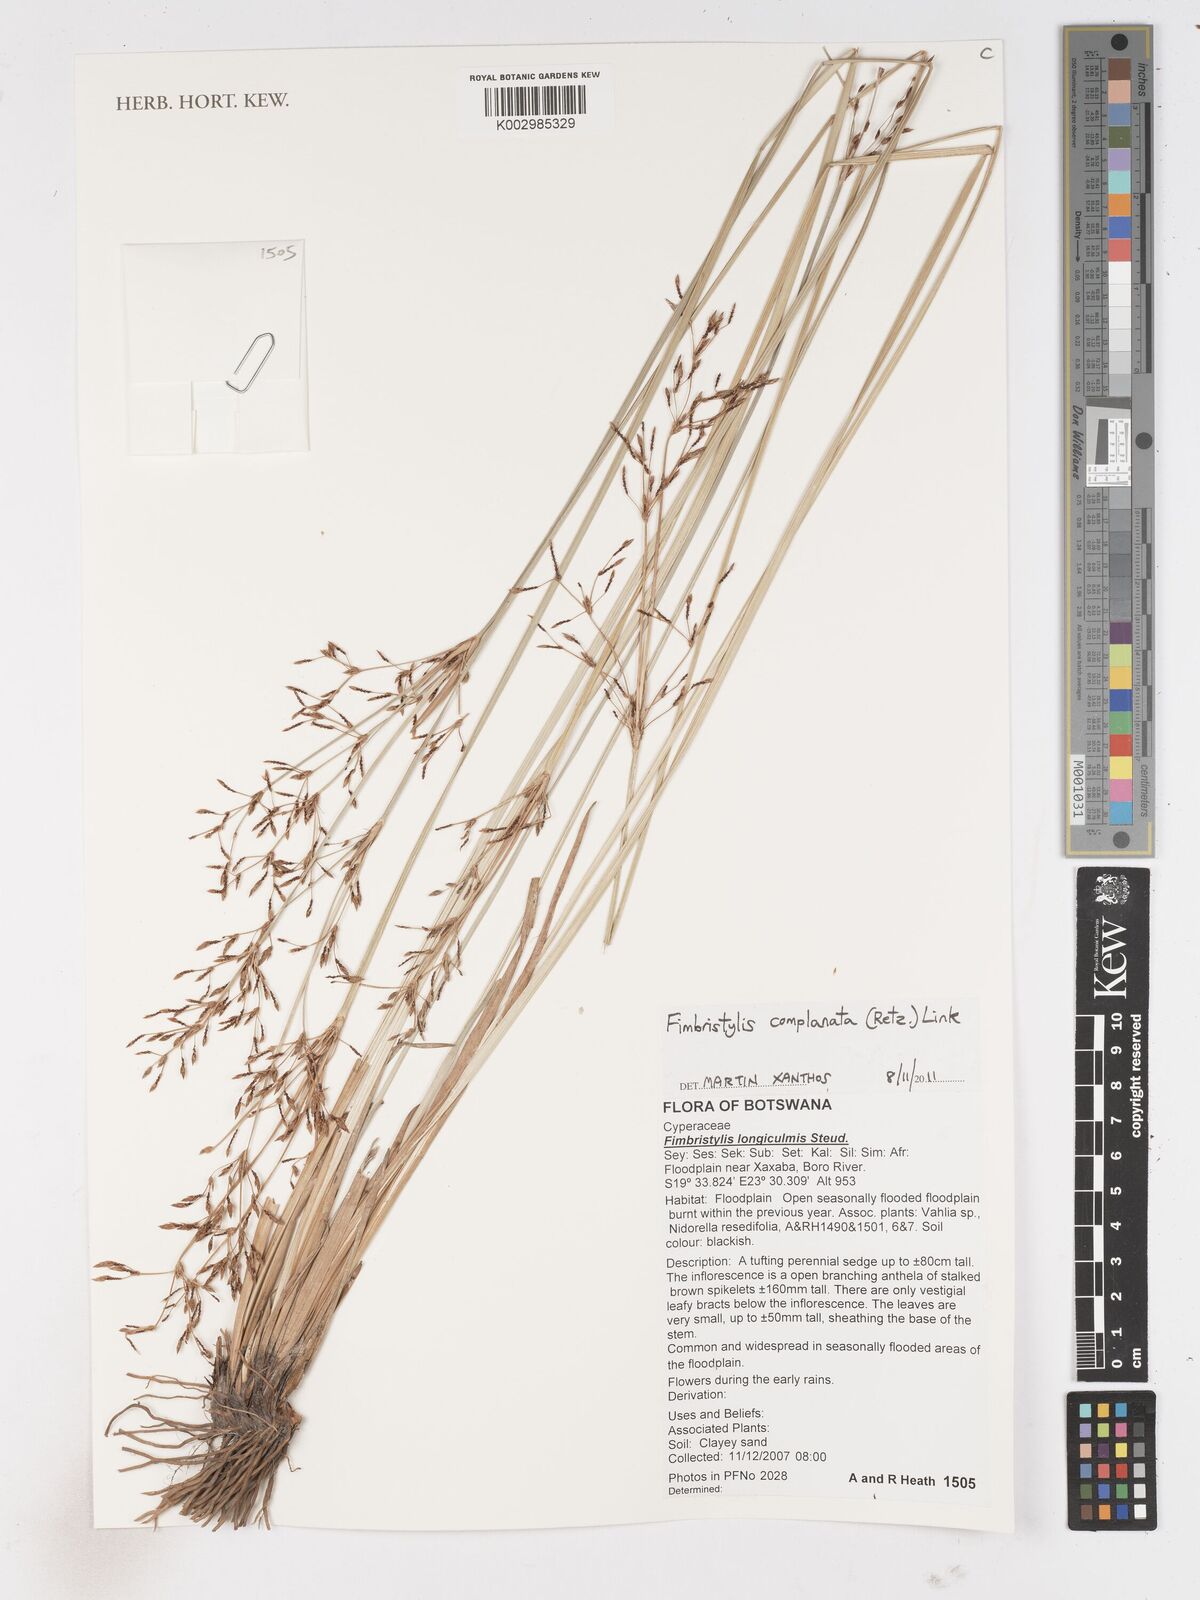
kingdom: Plantae
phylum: Tracheophyta
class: Liliopsida
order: Poales
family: Cyperaceae
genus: Fimbristylis
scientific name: Fimbristylis complanata
